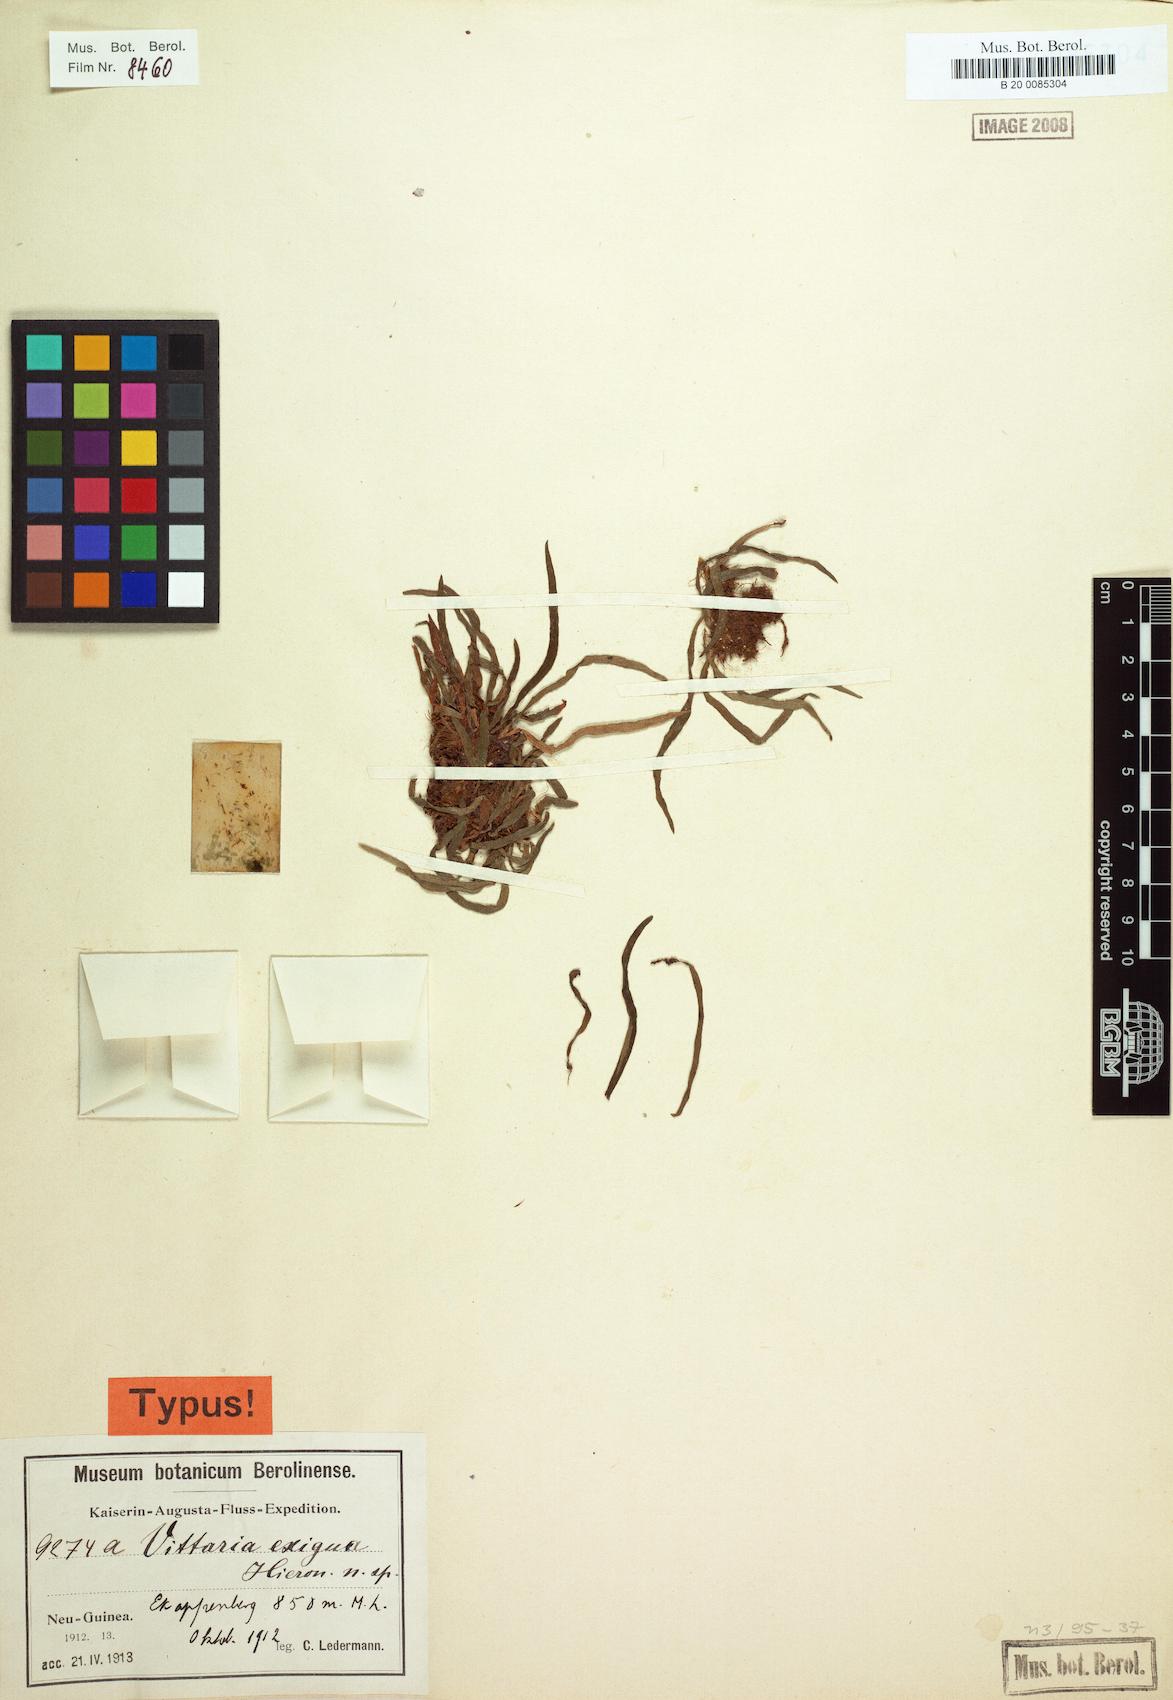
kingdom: Plantae
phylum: Tracheophyta
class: Polypodiopsida
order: Polypodiales
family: Pteridaceae
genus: Haplopteris
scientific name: Haplopteris exigua
